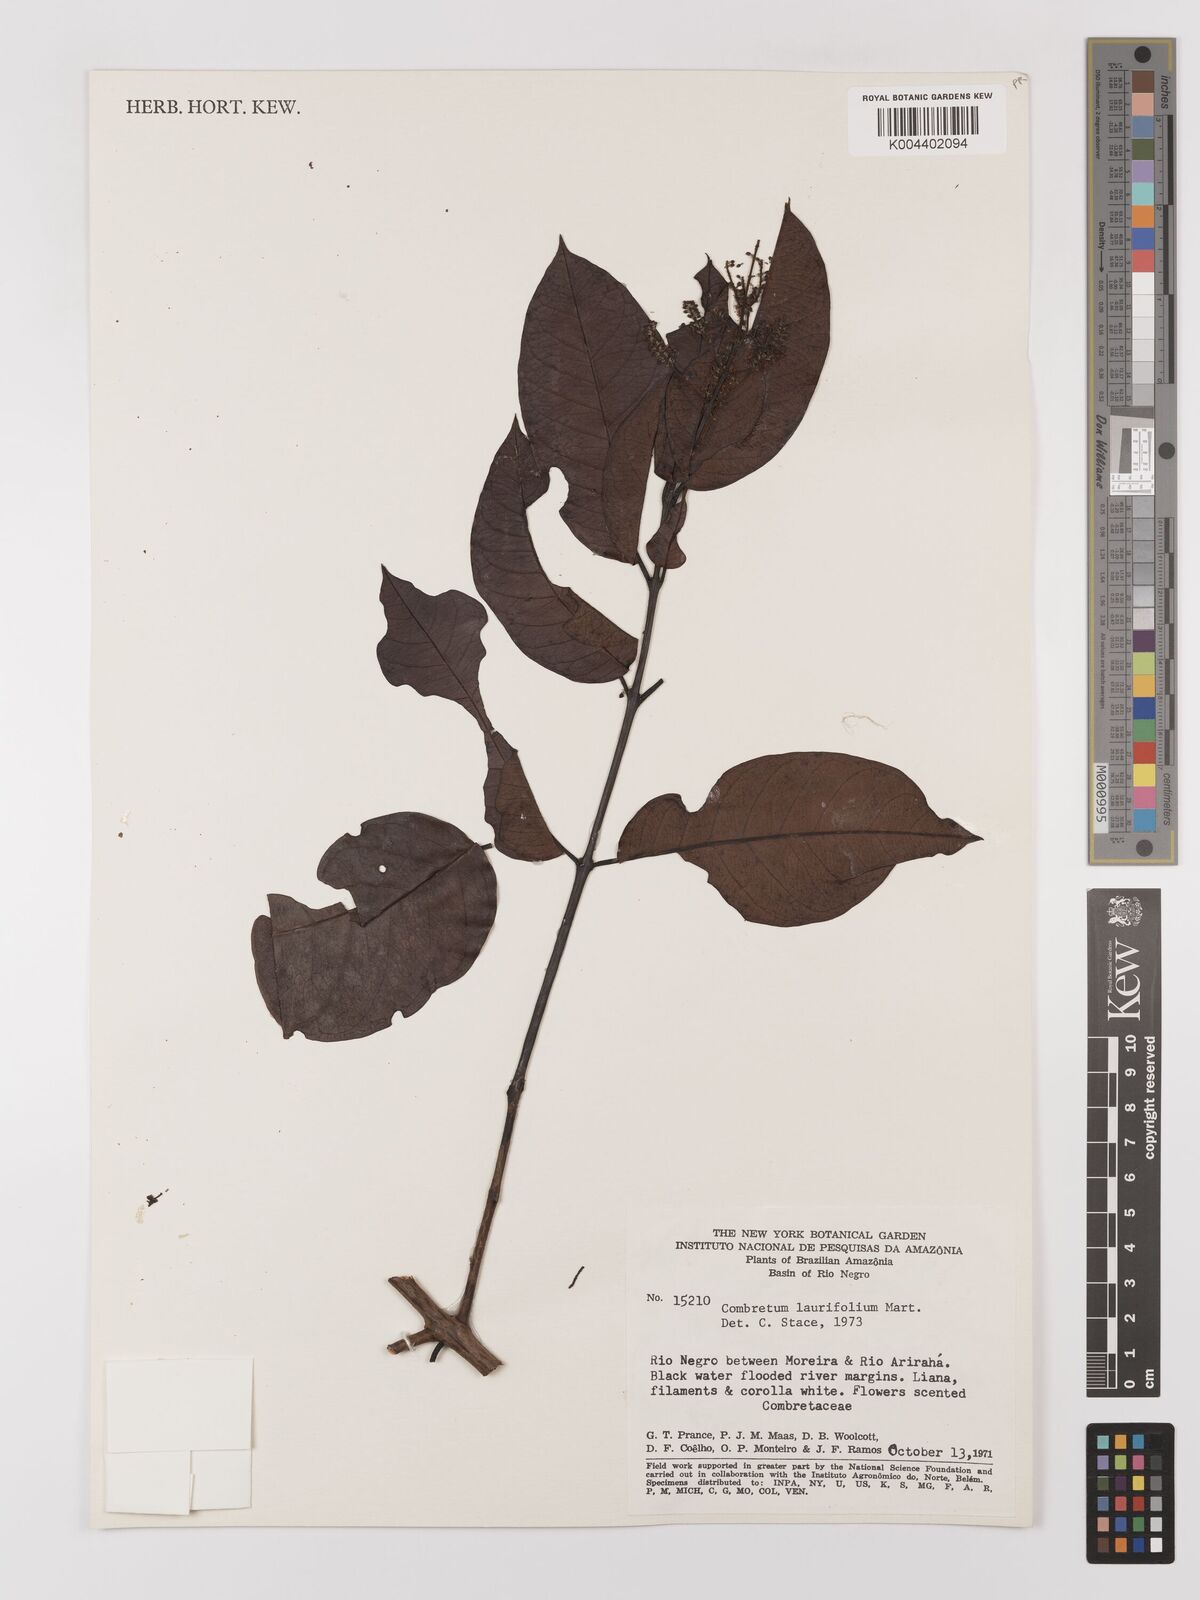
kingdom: Plantae
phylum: Tracheophyta
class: Magnoliopsida
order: Myrtales
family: Combretaceae
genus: Combretum
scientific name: Combretum
